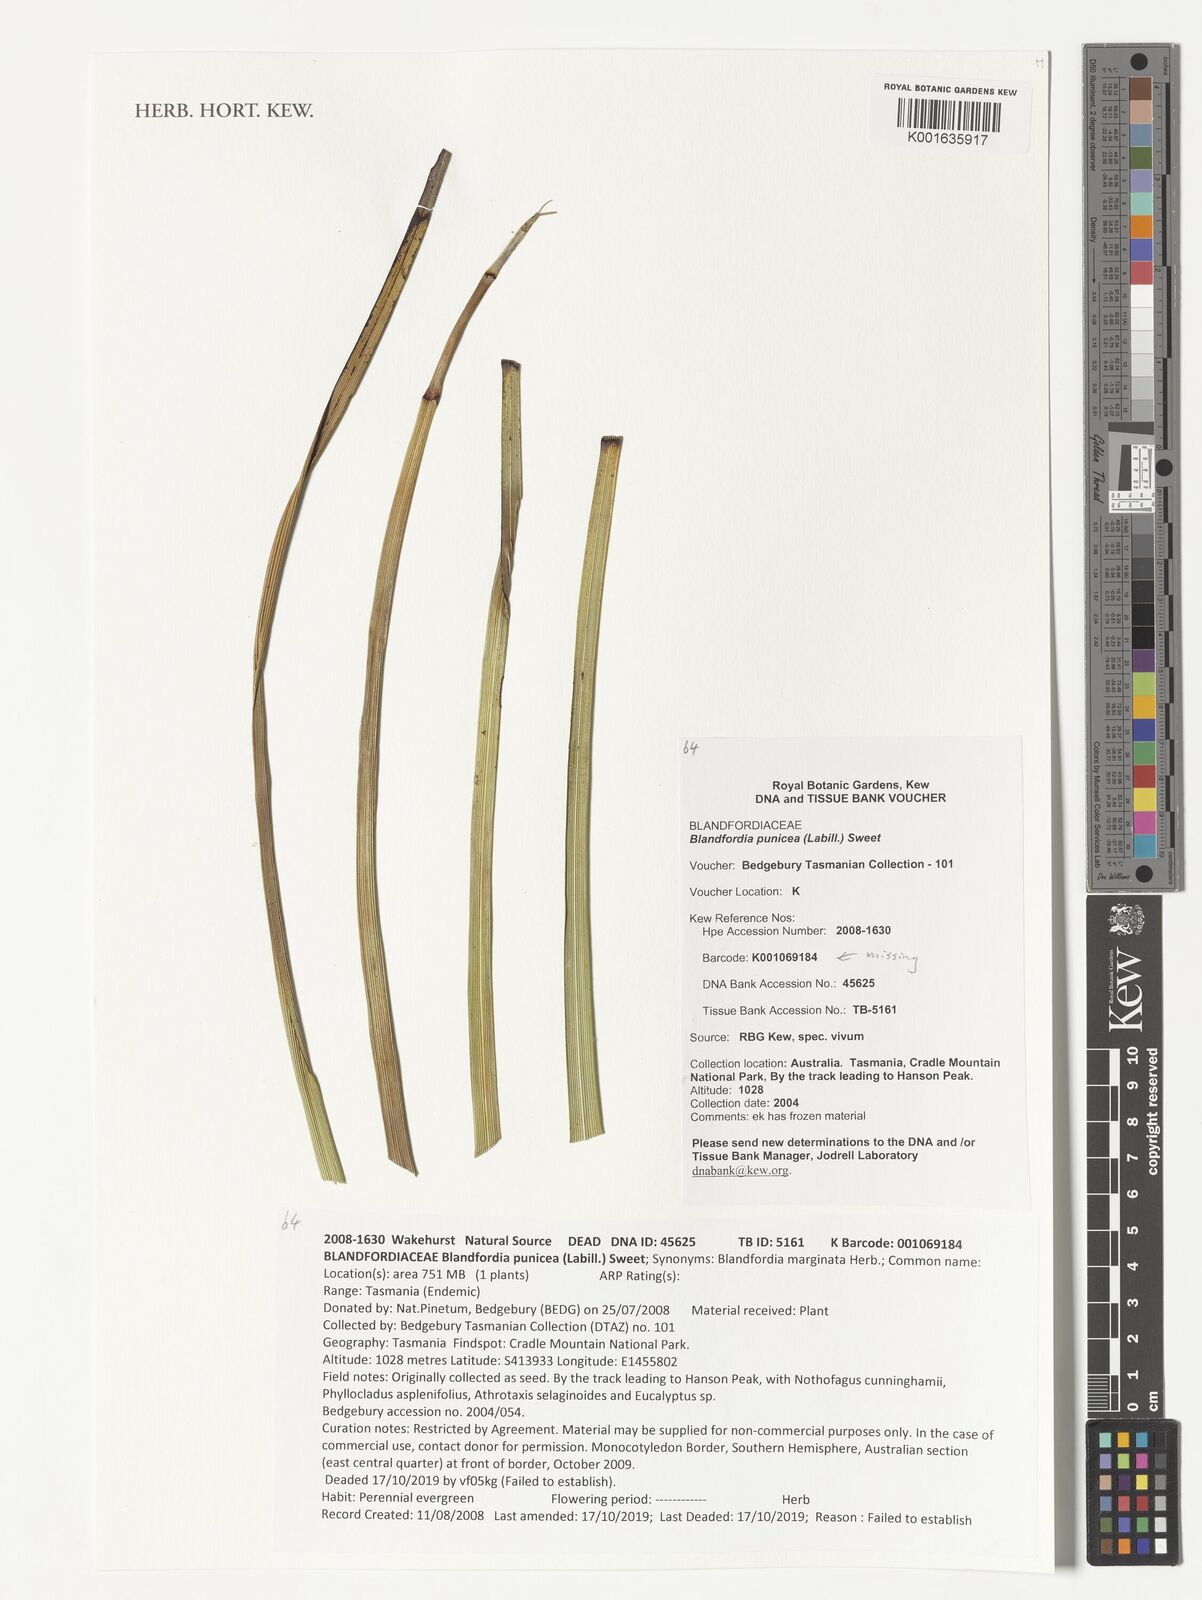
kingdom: Plantae
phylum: Tracheophyta
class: Liliopsida
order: Asparagales
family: Blandfordiaceae
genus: Blandfordia
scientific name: Blandfordia punicea
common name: Tasmanian christmas-bell
